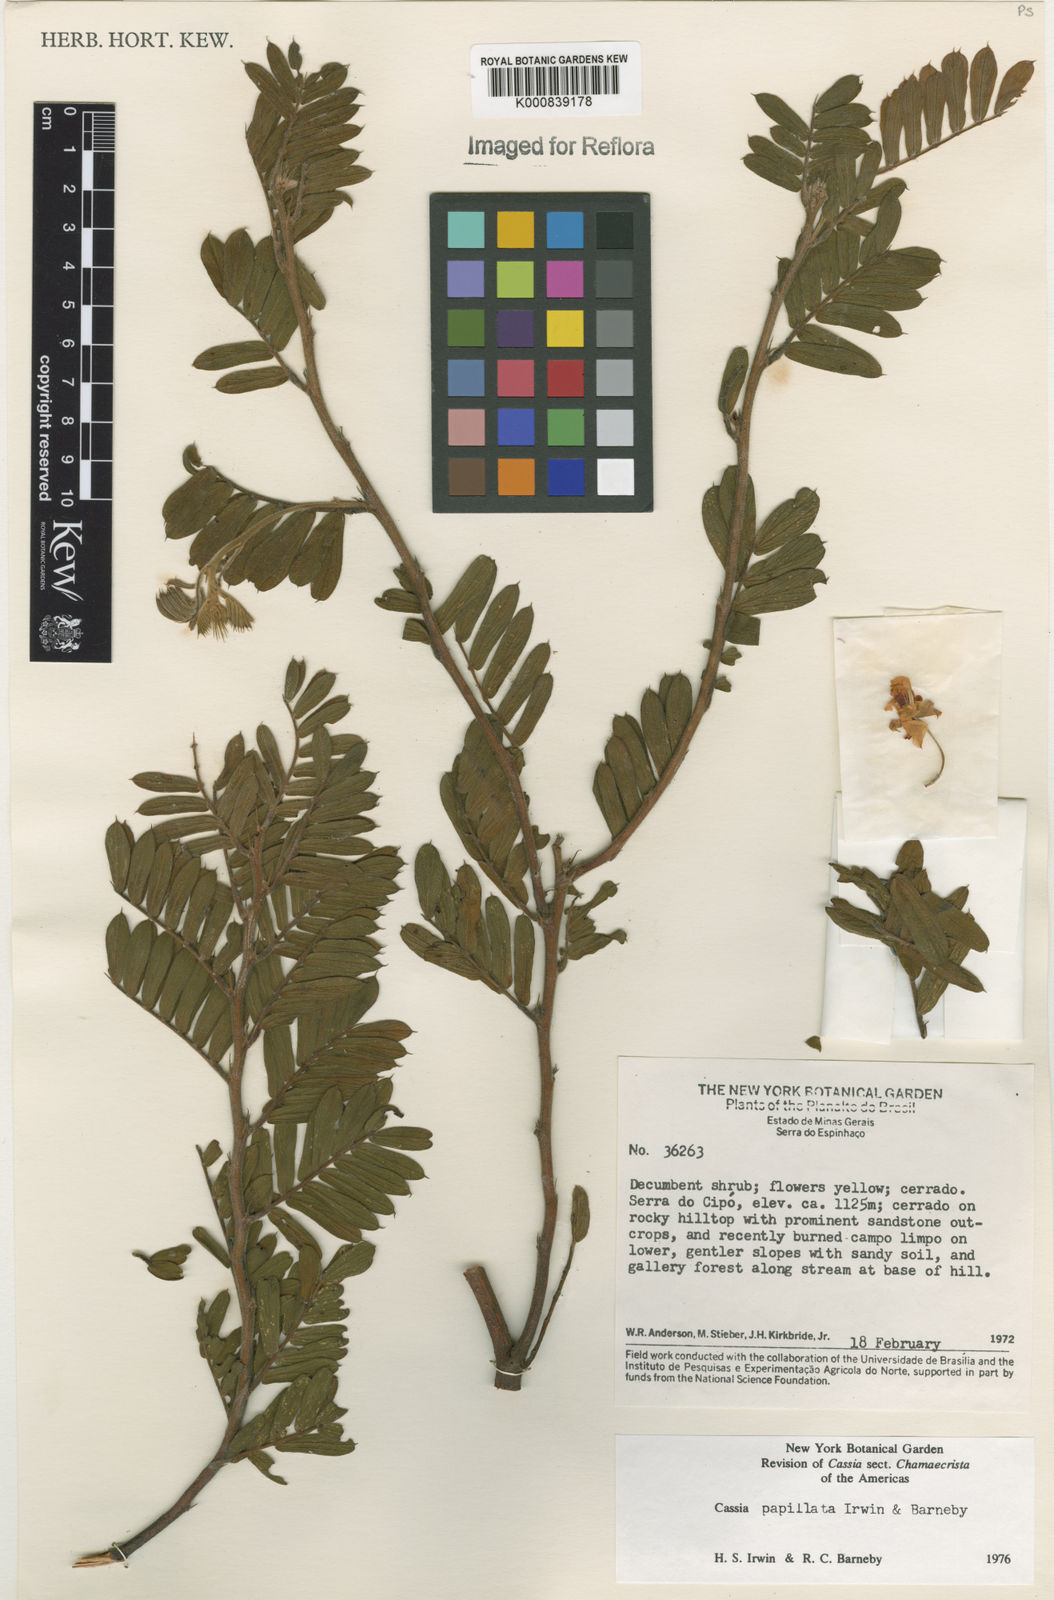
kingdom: Plantae
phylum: Tracheophyta
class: Magnoliopsida
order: Fabales
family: Fabaceae
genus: Chamaecrista
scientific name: Chamaecrista arrojadoana
